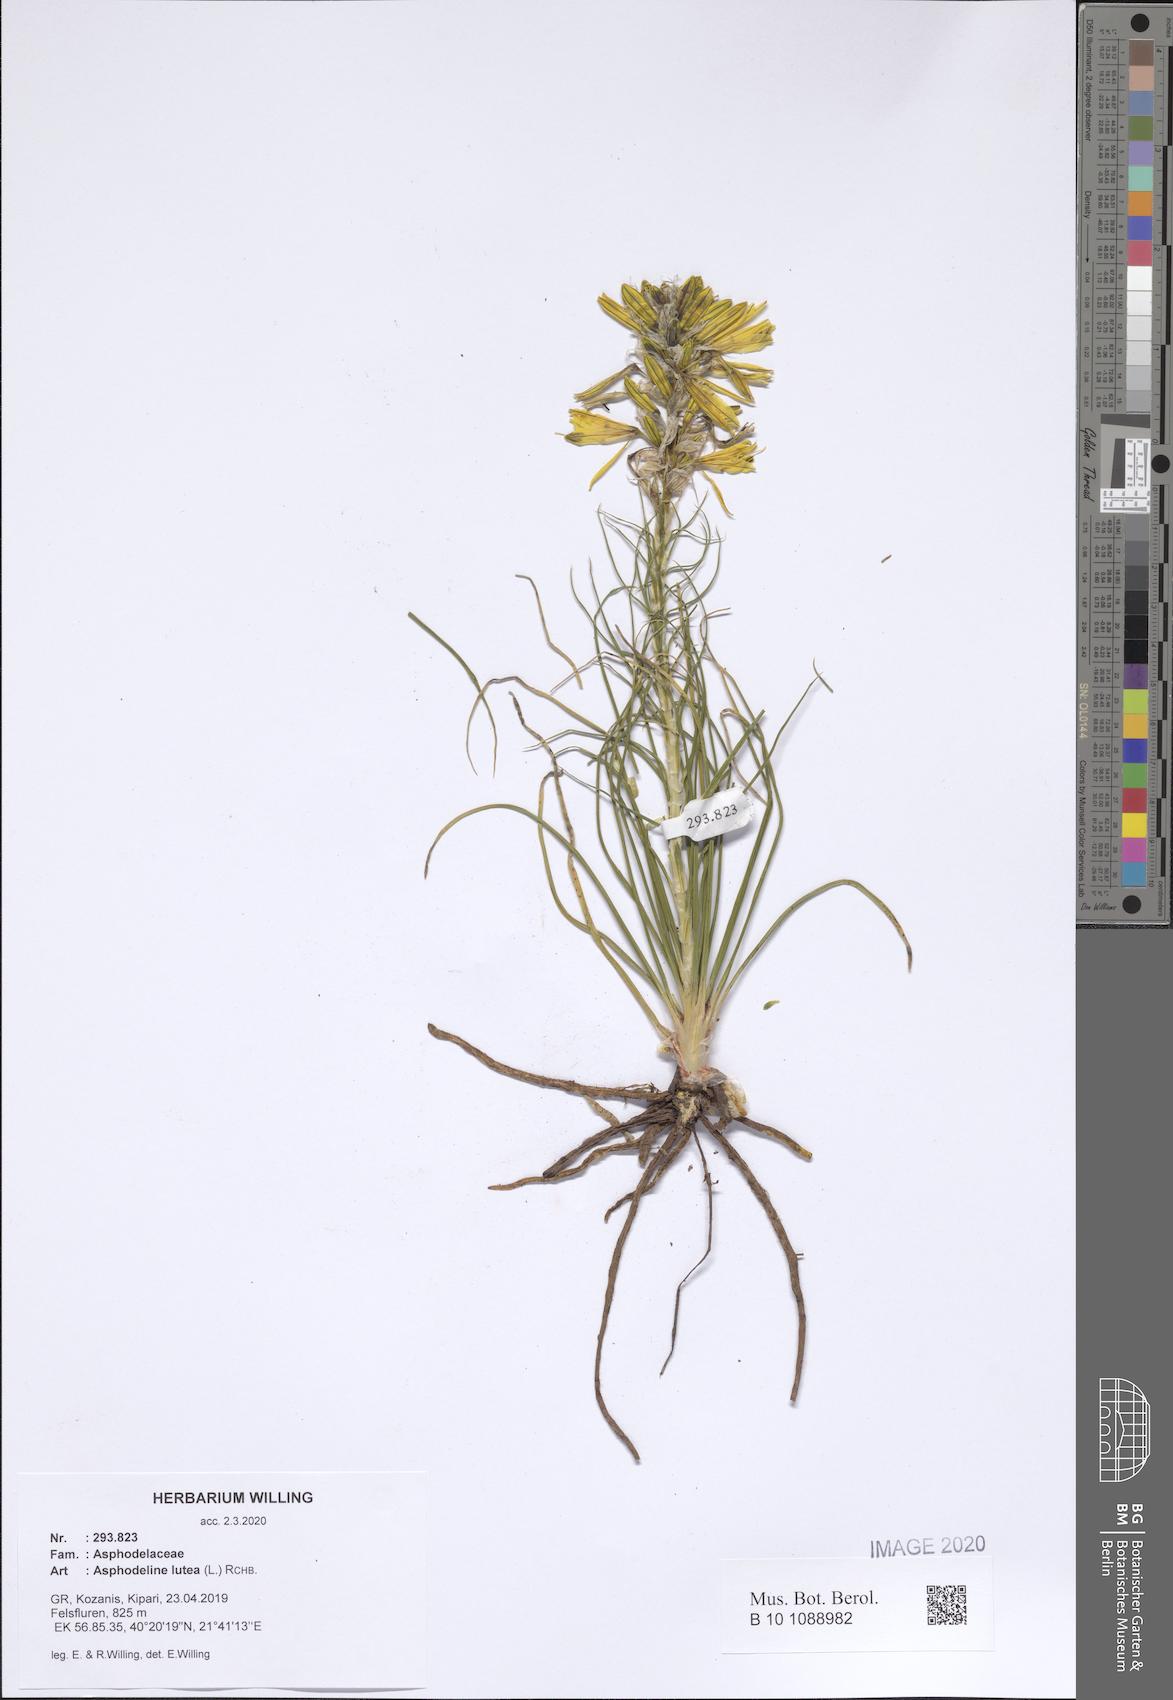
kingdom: Plantae
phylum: Tracheophyta
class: Liliopsida
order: Asparagales
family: Asphodelaceae
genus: Asphodeline
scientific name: Asphodeline lutea
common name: Yellow asphodel
